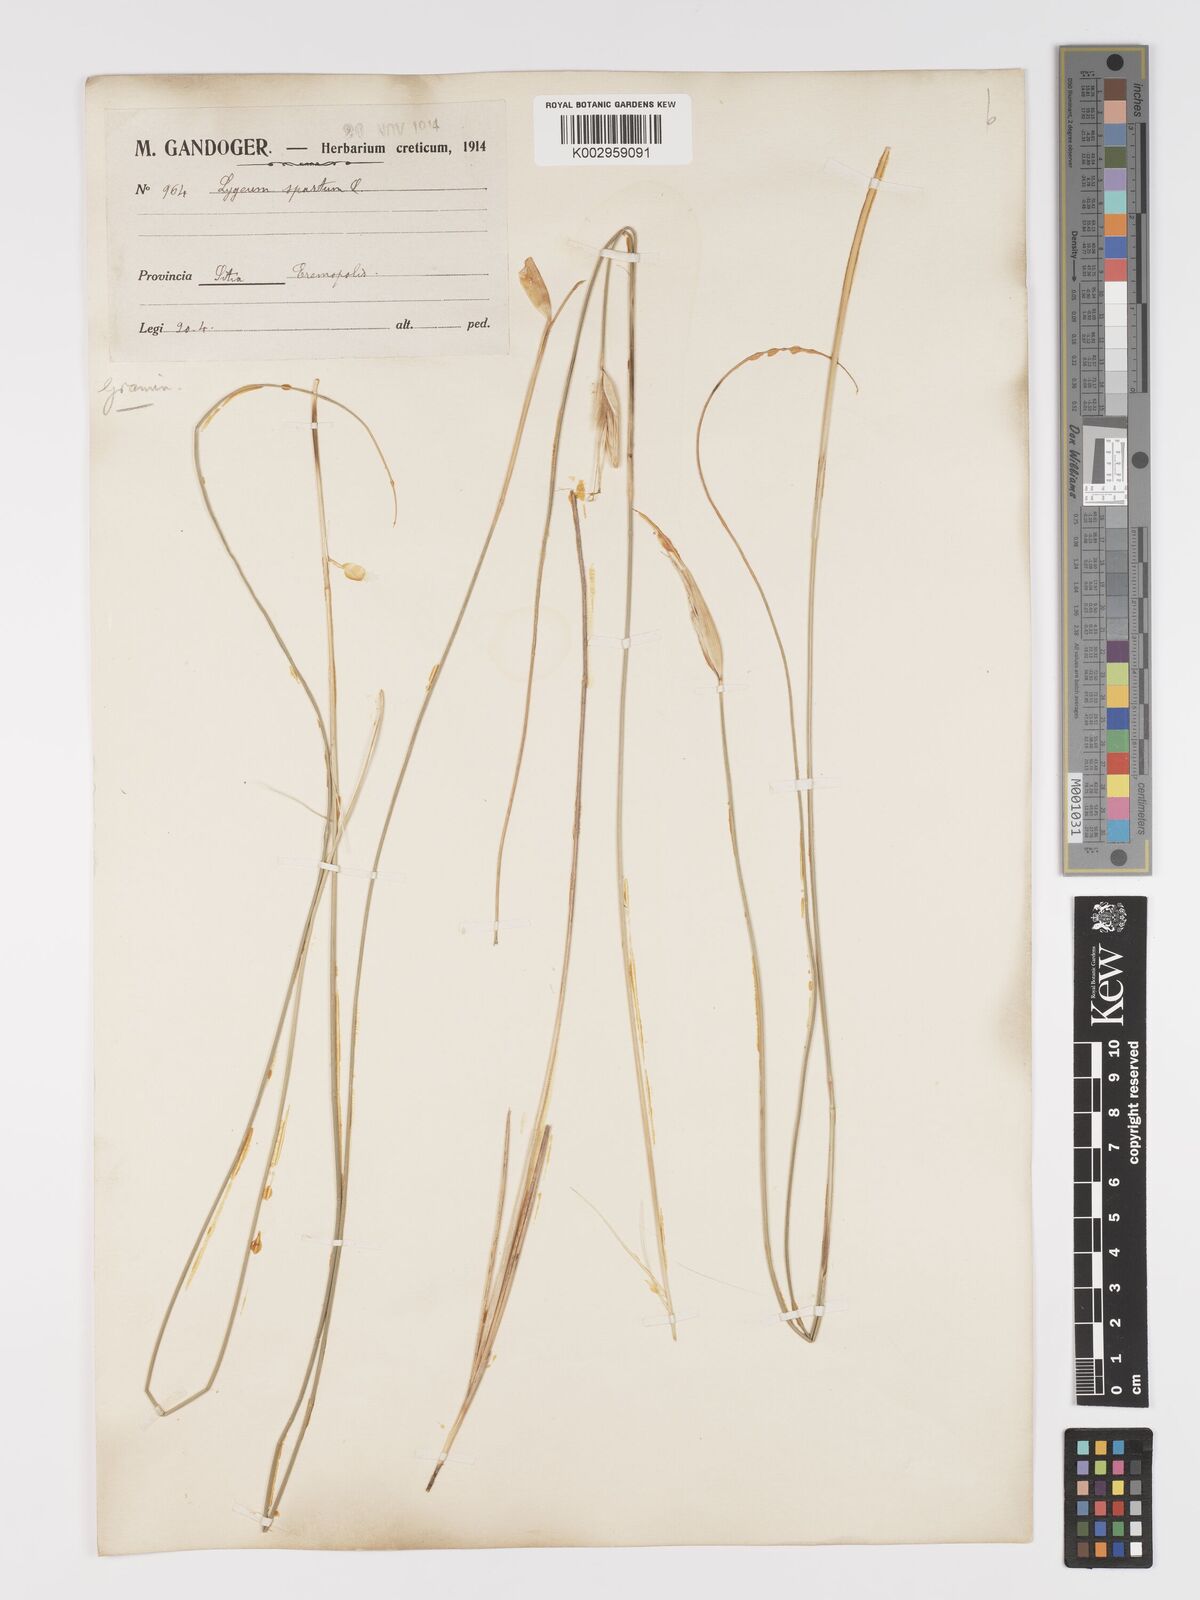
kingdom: Plantae
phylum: Tracheophyta
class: Liliopsida
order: Poales
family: Poaceae
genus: Lygeum
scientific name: Lygeum spartum
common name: Albardine
